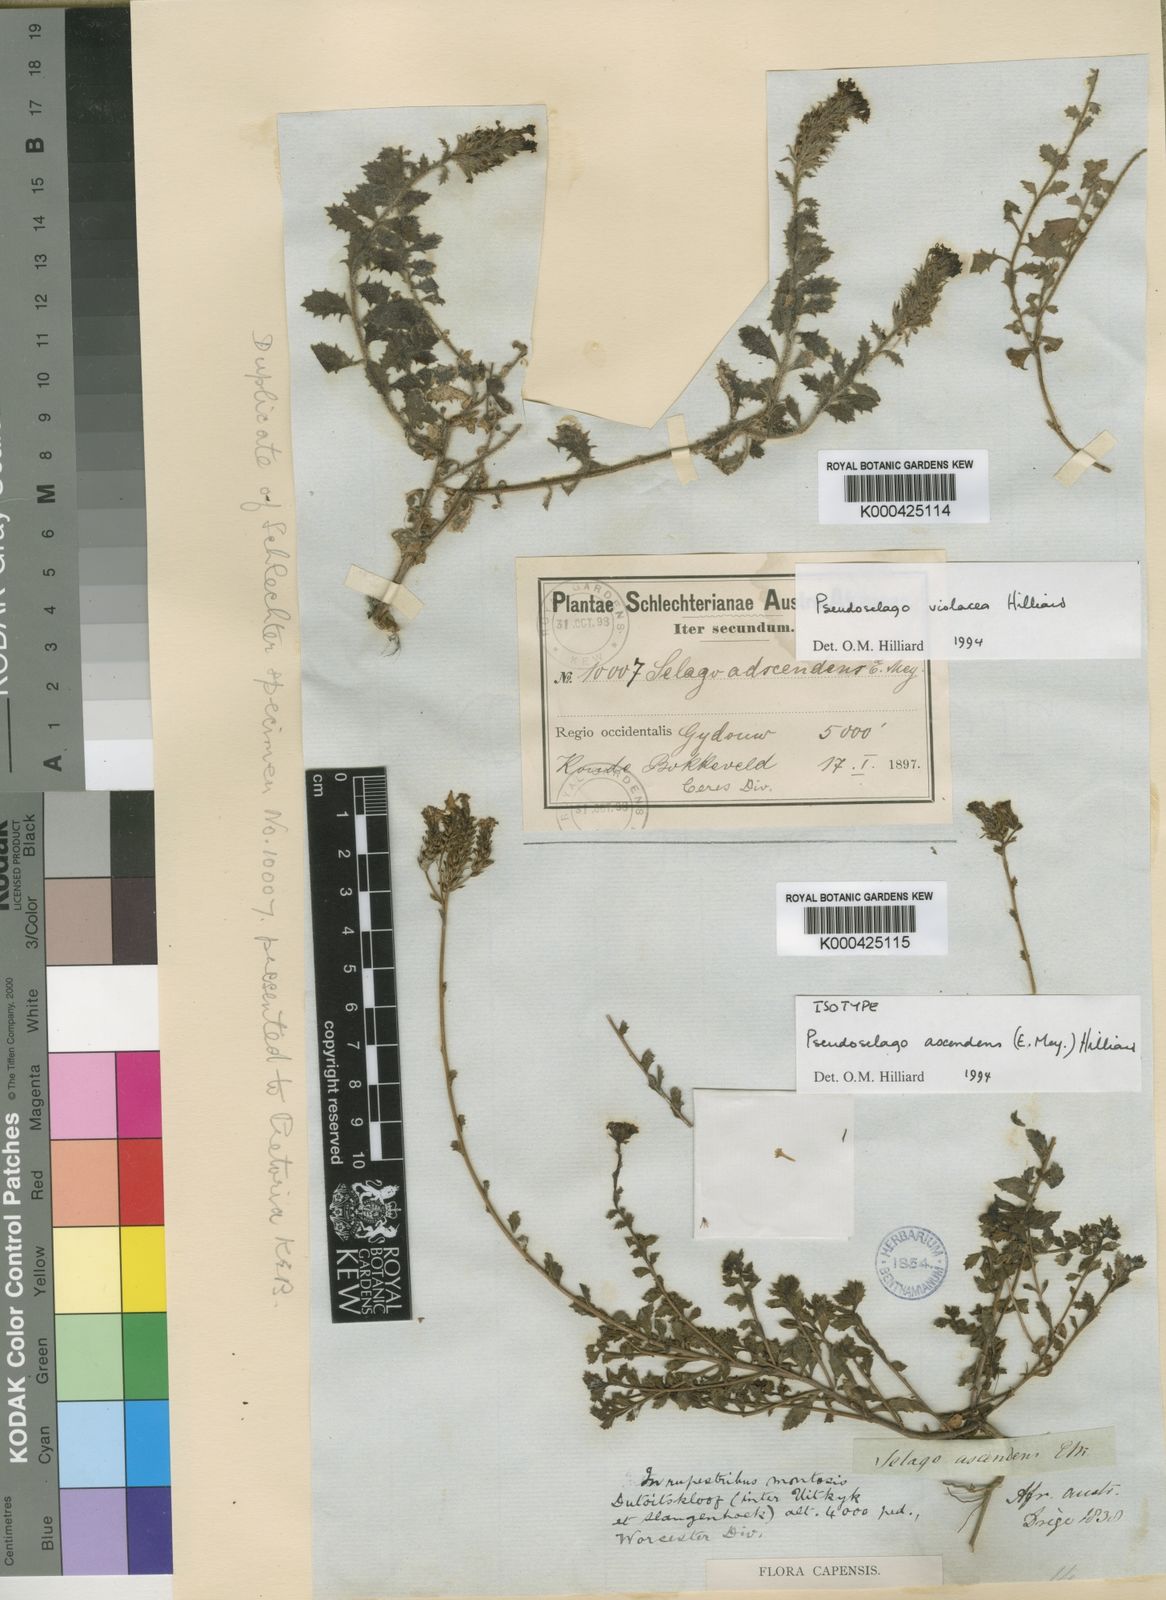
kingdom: Plantae
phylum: Tracheophyta
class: Magnoliopsida
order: Lamiales
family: Scrophulariaceae
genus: Pseudoselago
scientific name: Pseudoselago ascendens
